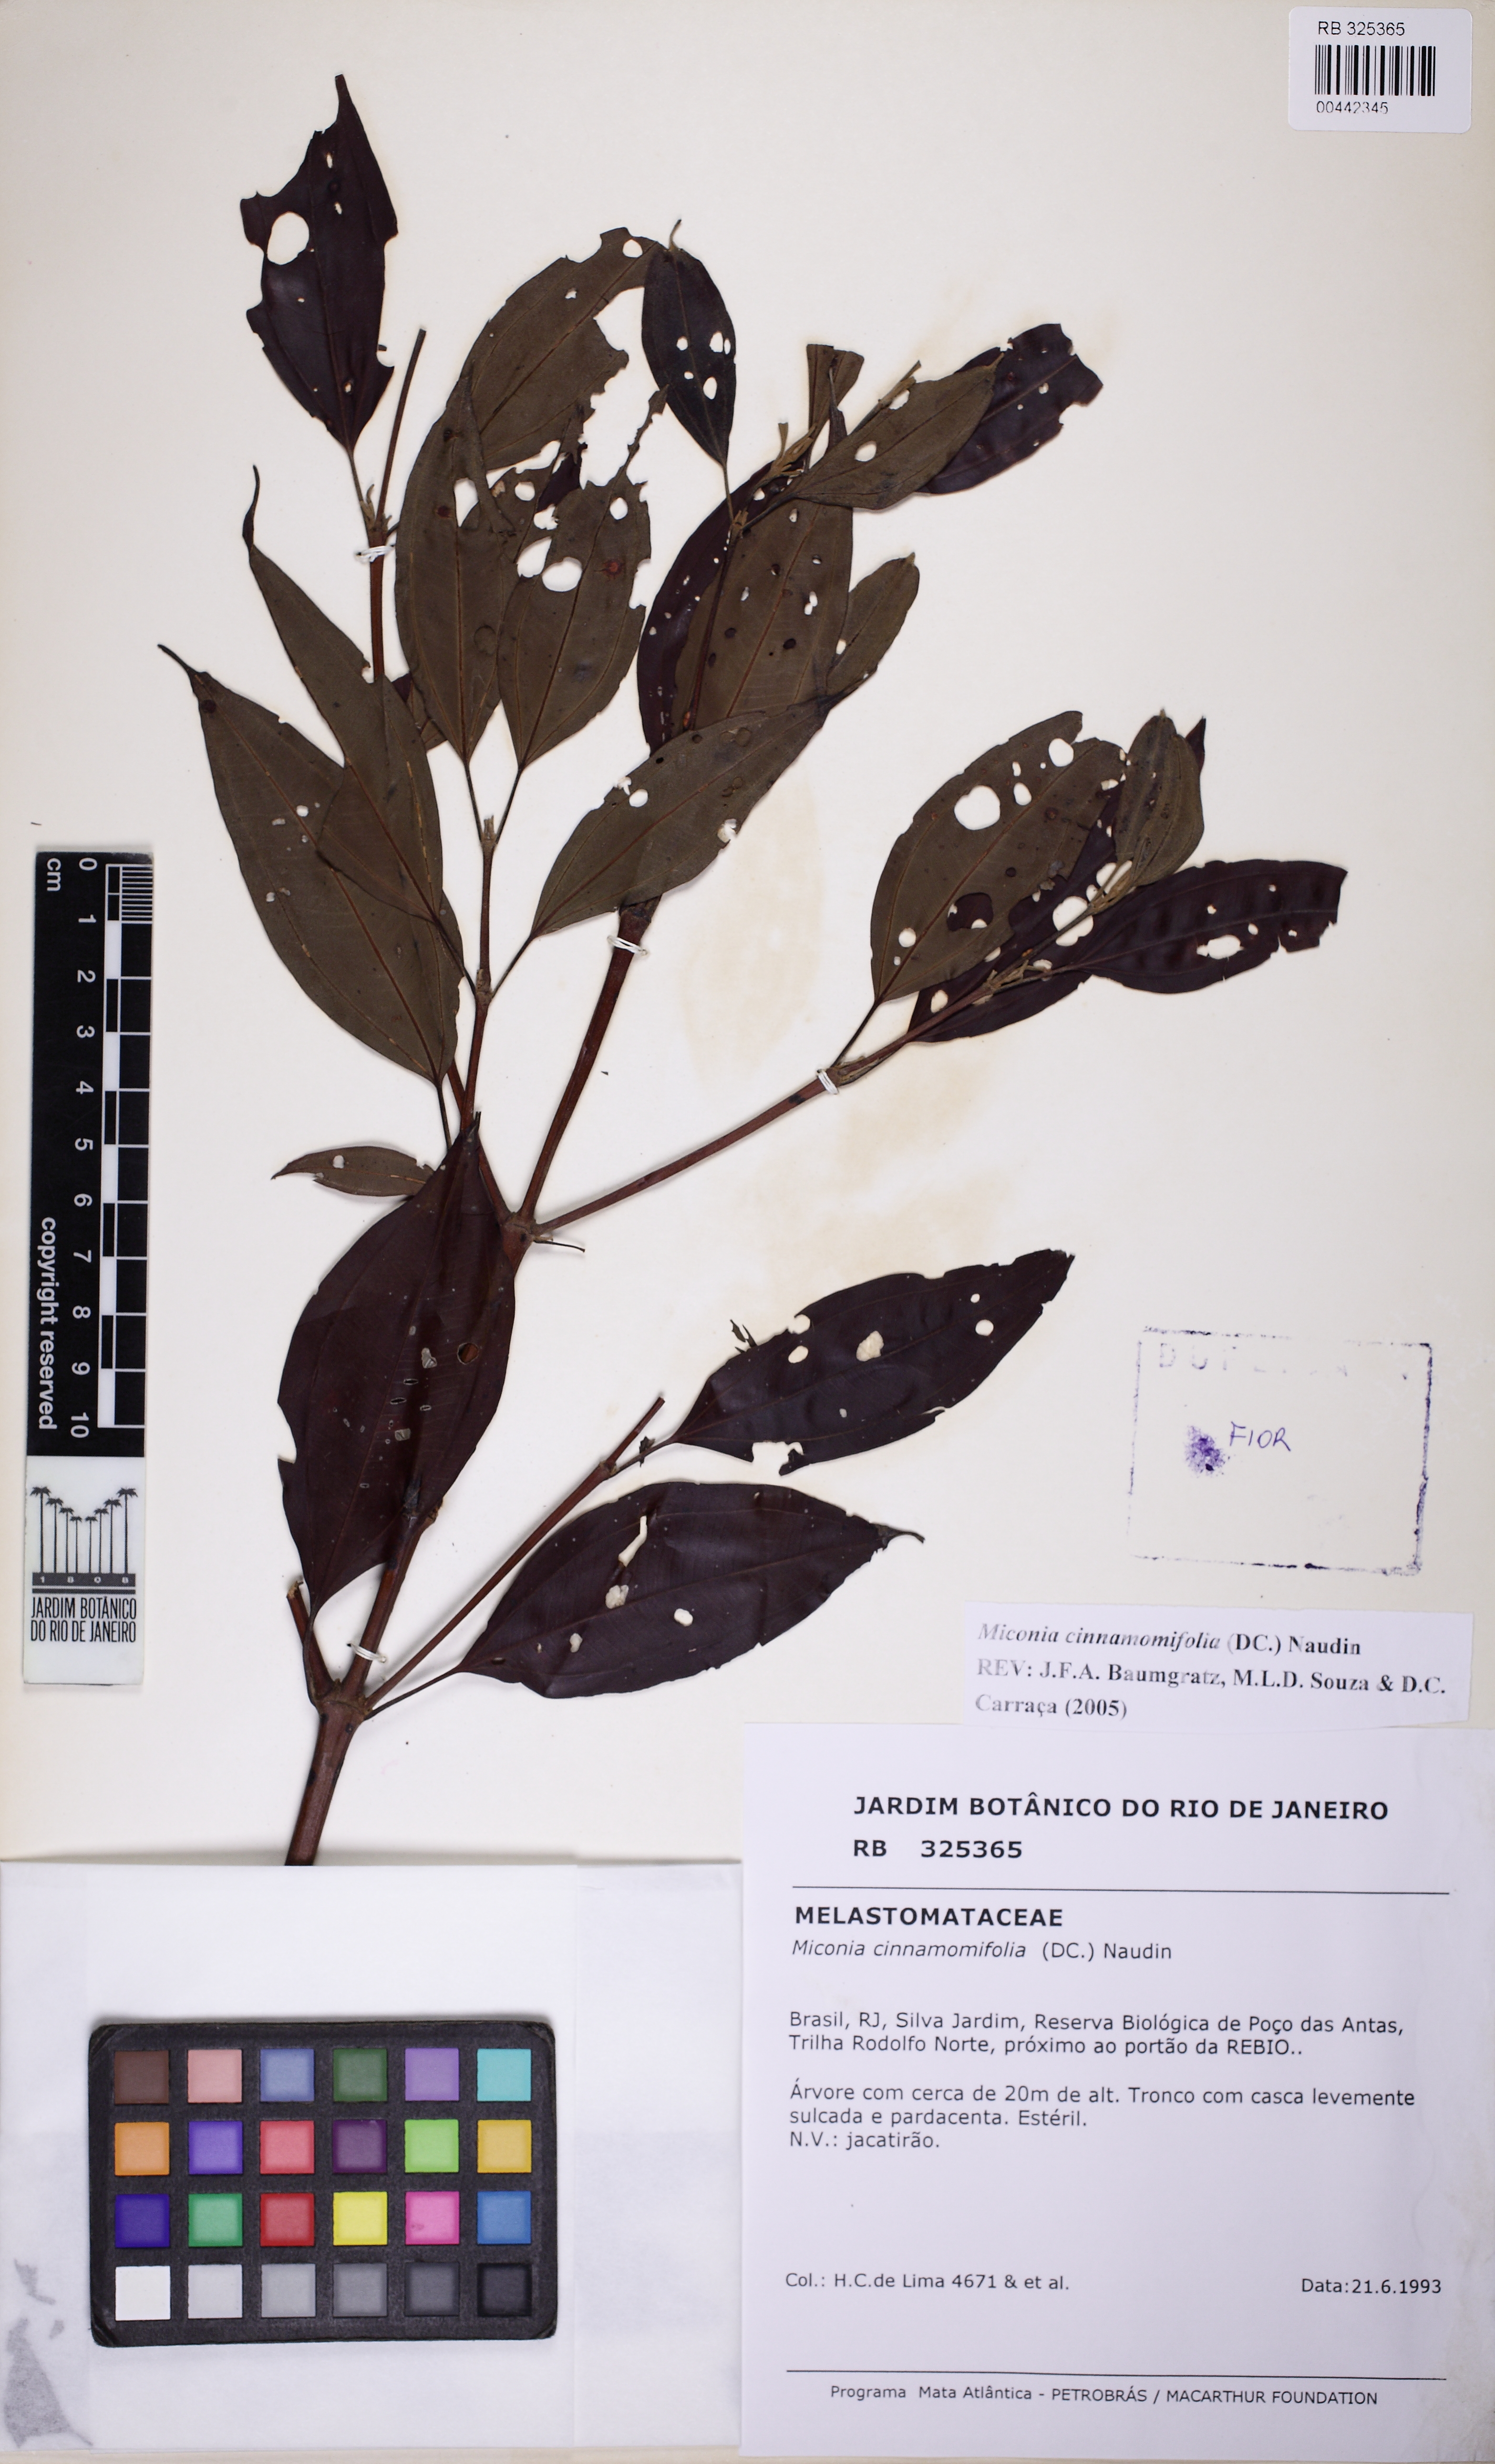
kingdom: Plantae
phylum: Tracheophyta
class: Magnoliopsida
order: Myrtales
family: Melastomataceae
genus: Miconia
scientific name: Miconia cinnamomifolia
